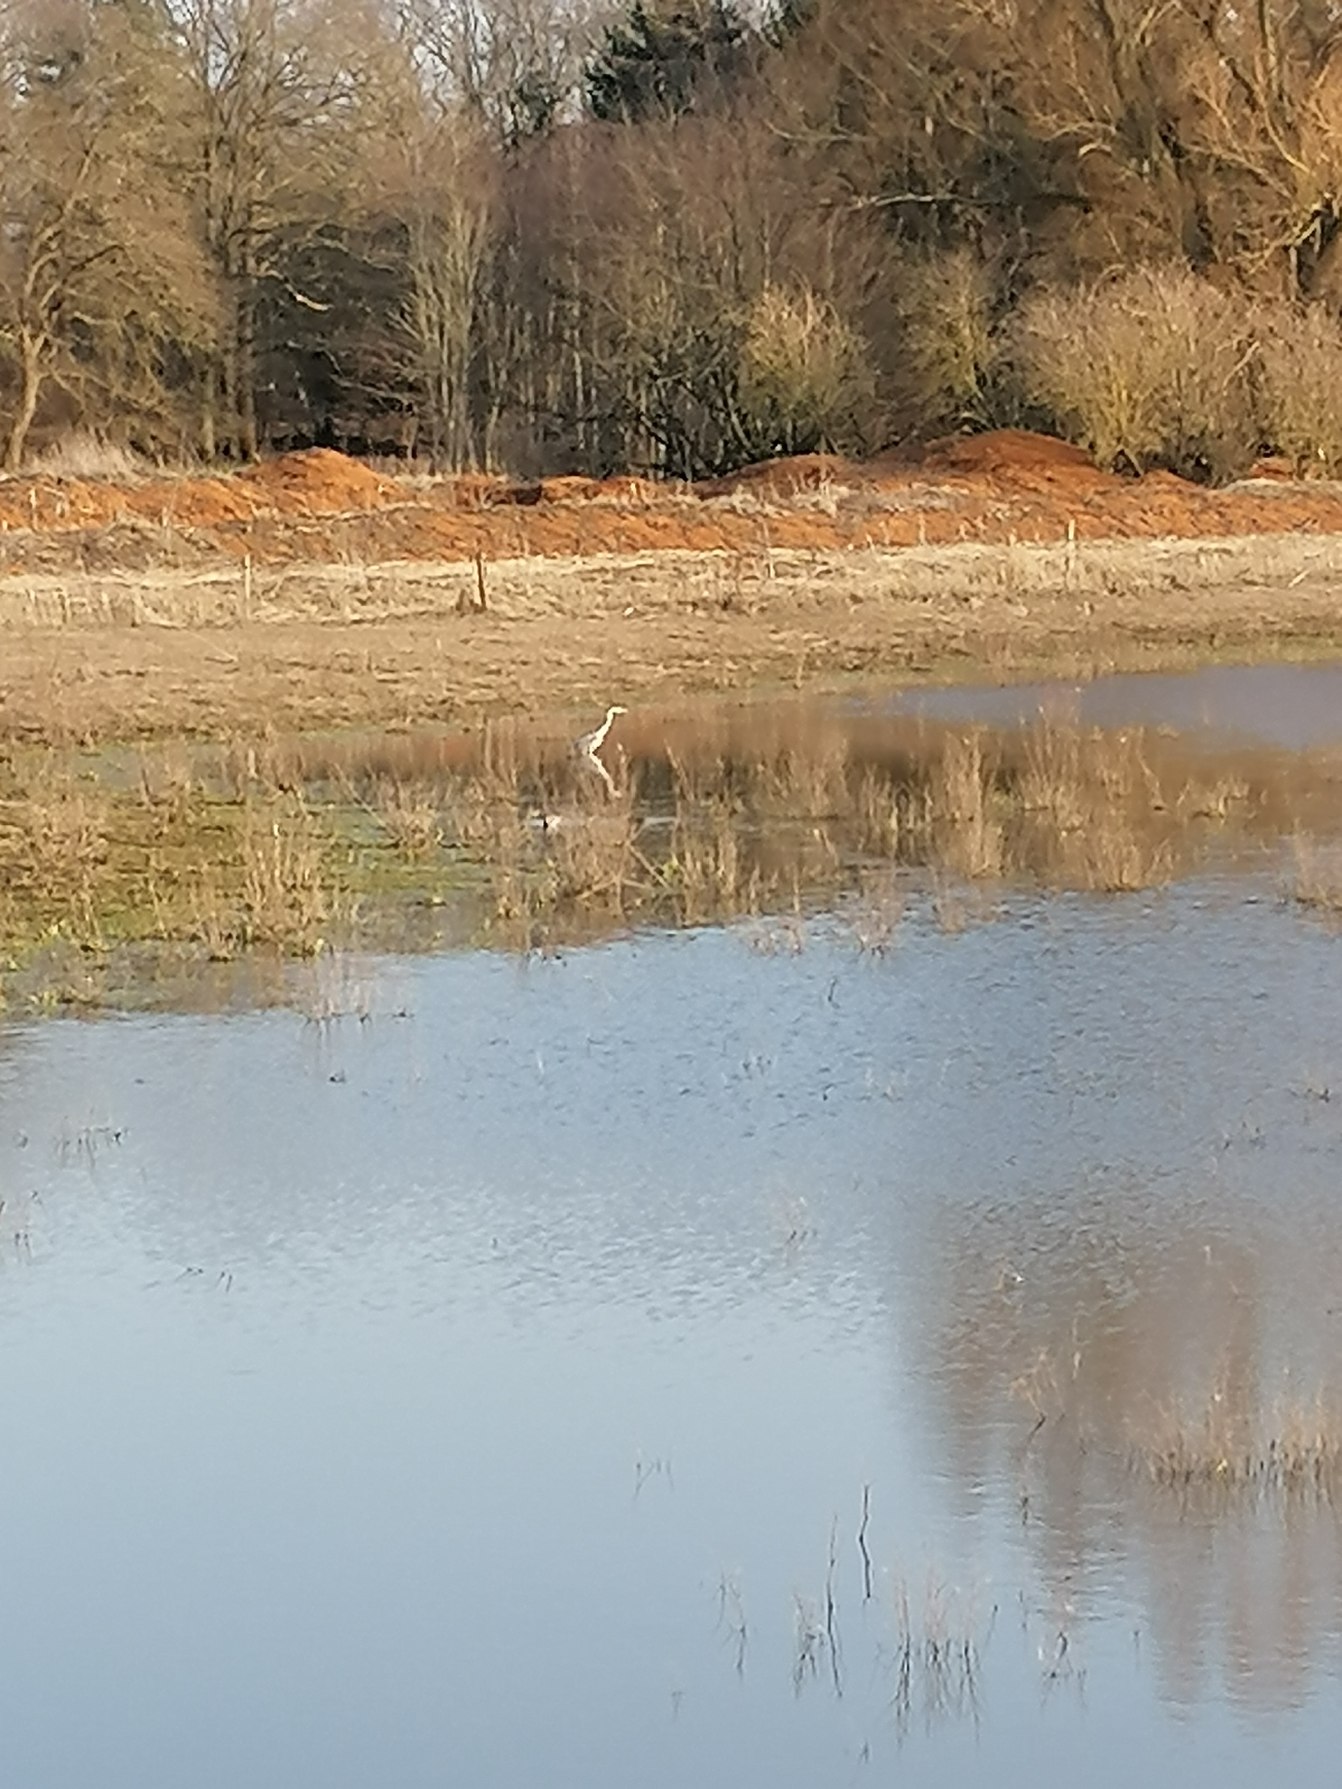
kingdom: Animalia
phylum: Chordata
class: Aves
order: Pelecaniformes
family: Ardeidae
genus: Ardea
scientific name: Ardea cinerea
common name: Fiskehejre
